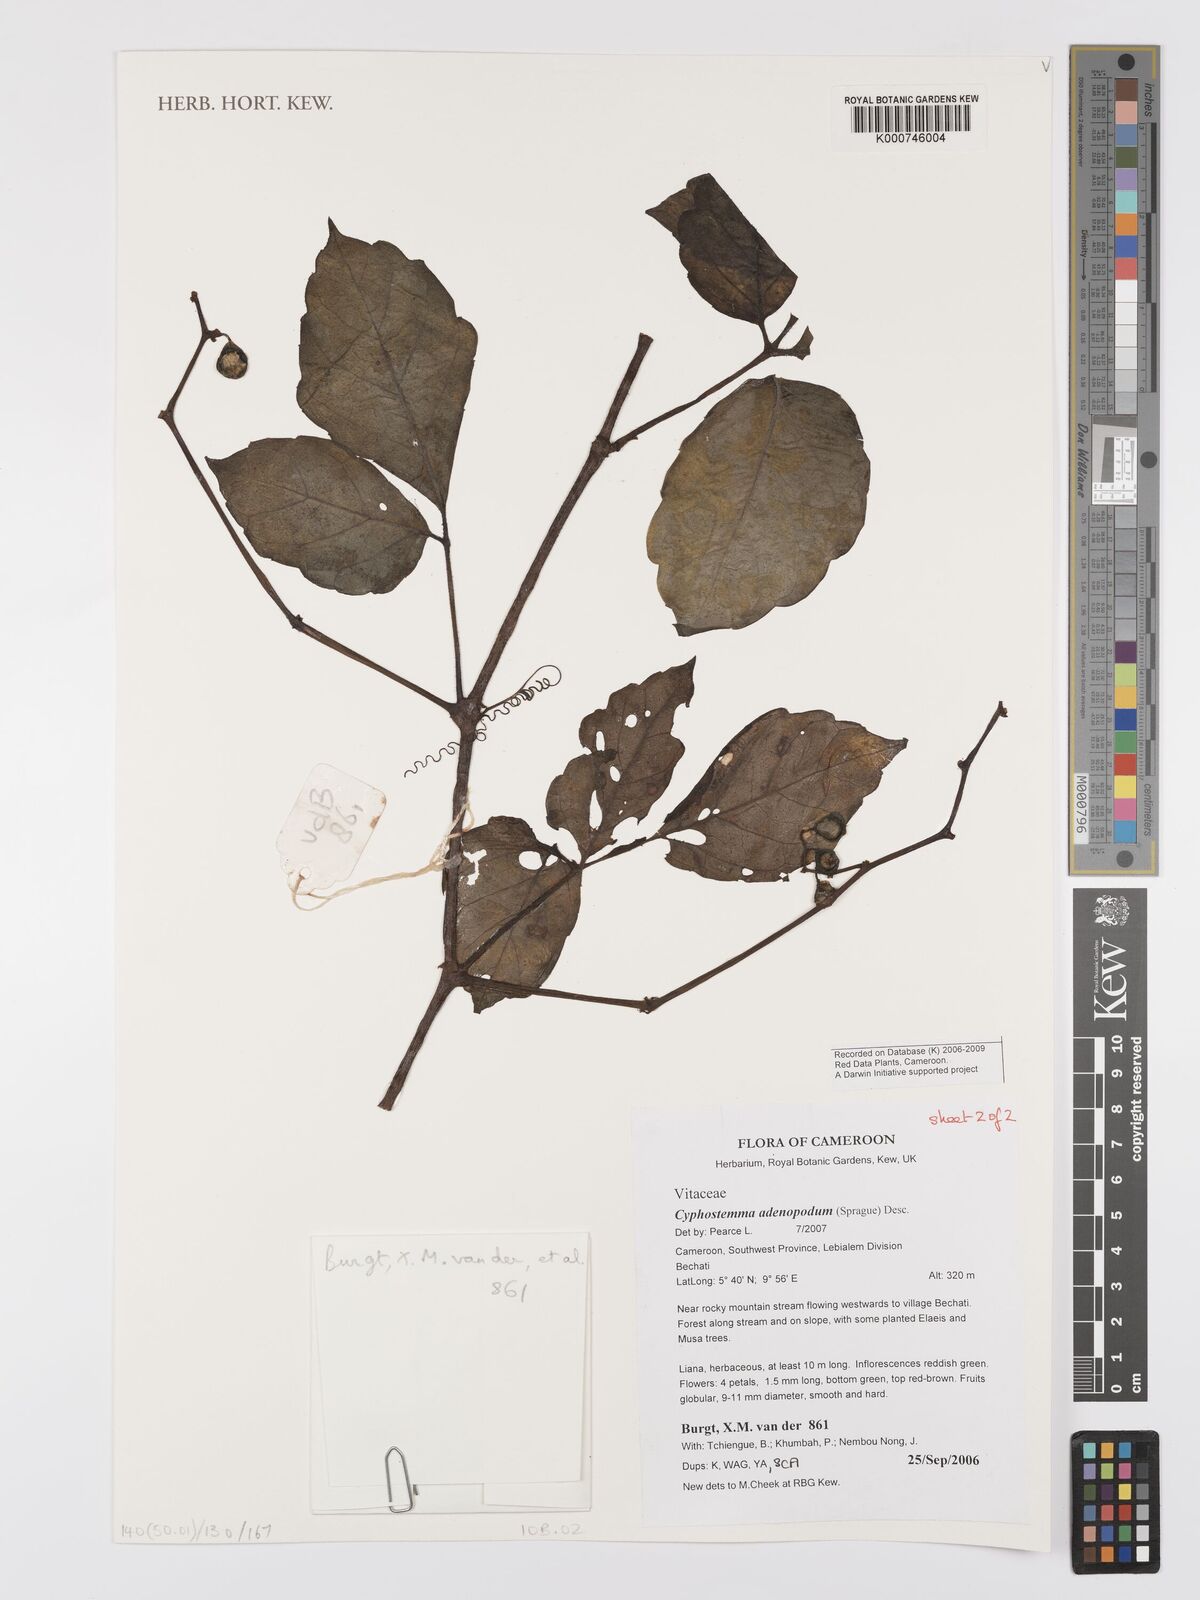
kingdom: Plantae
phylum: Tracheophyta
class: Magnoliopsida
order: Vitales
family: Vitaceae
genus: Cyphostemma
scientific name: Cyphostemma adenopodum
